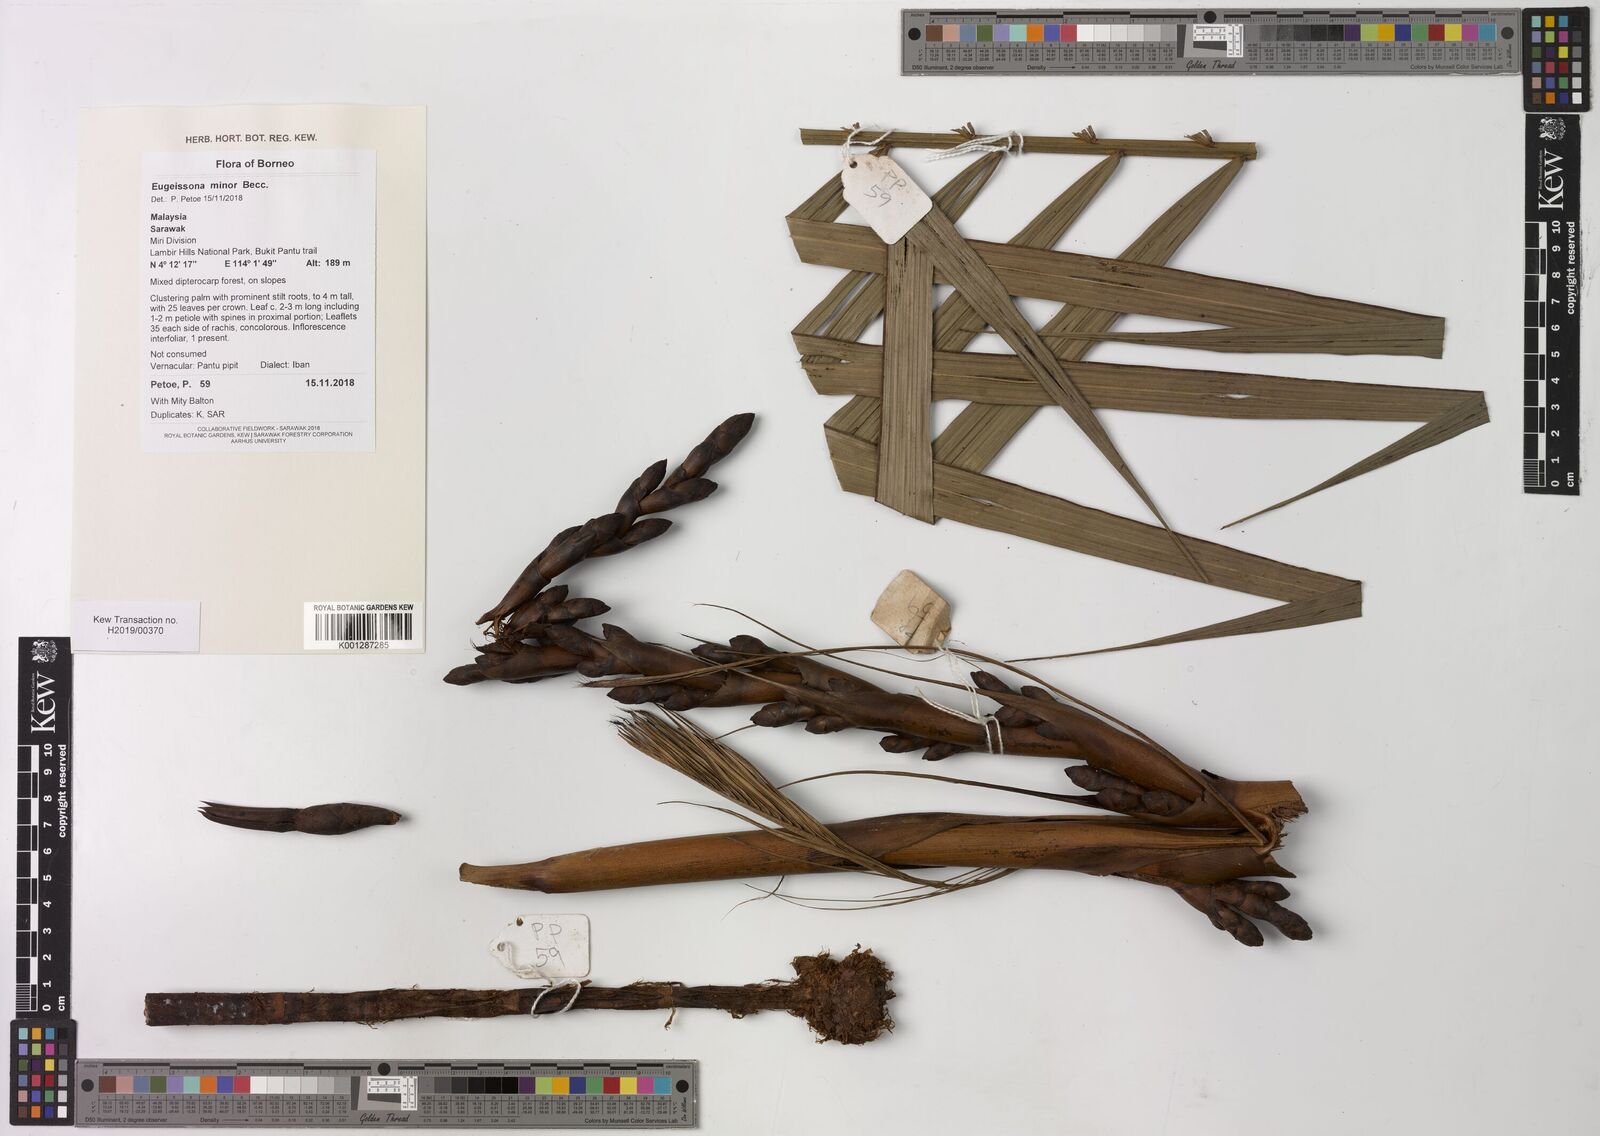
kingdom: Plantae
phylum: Tracheophyta
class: Liliopsida
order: Arecales
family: Arecaceae
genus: Eugeissona
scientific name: Eugeissona minor
